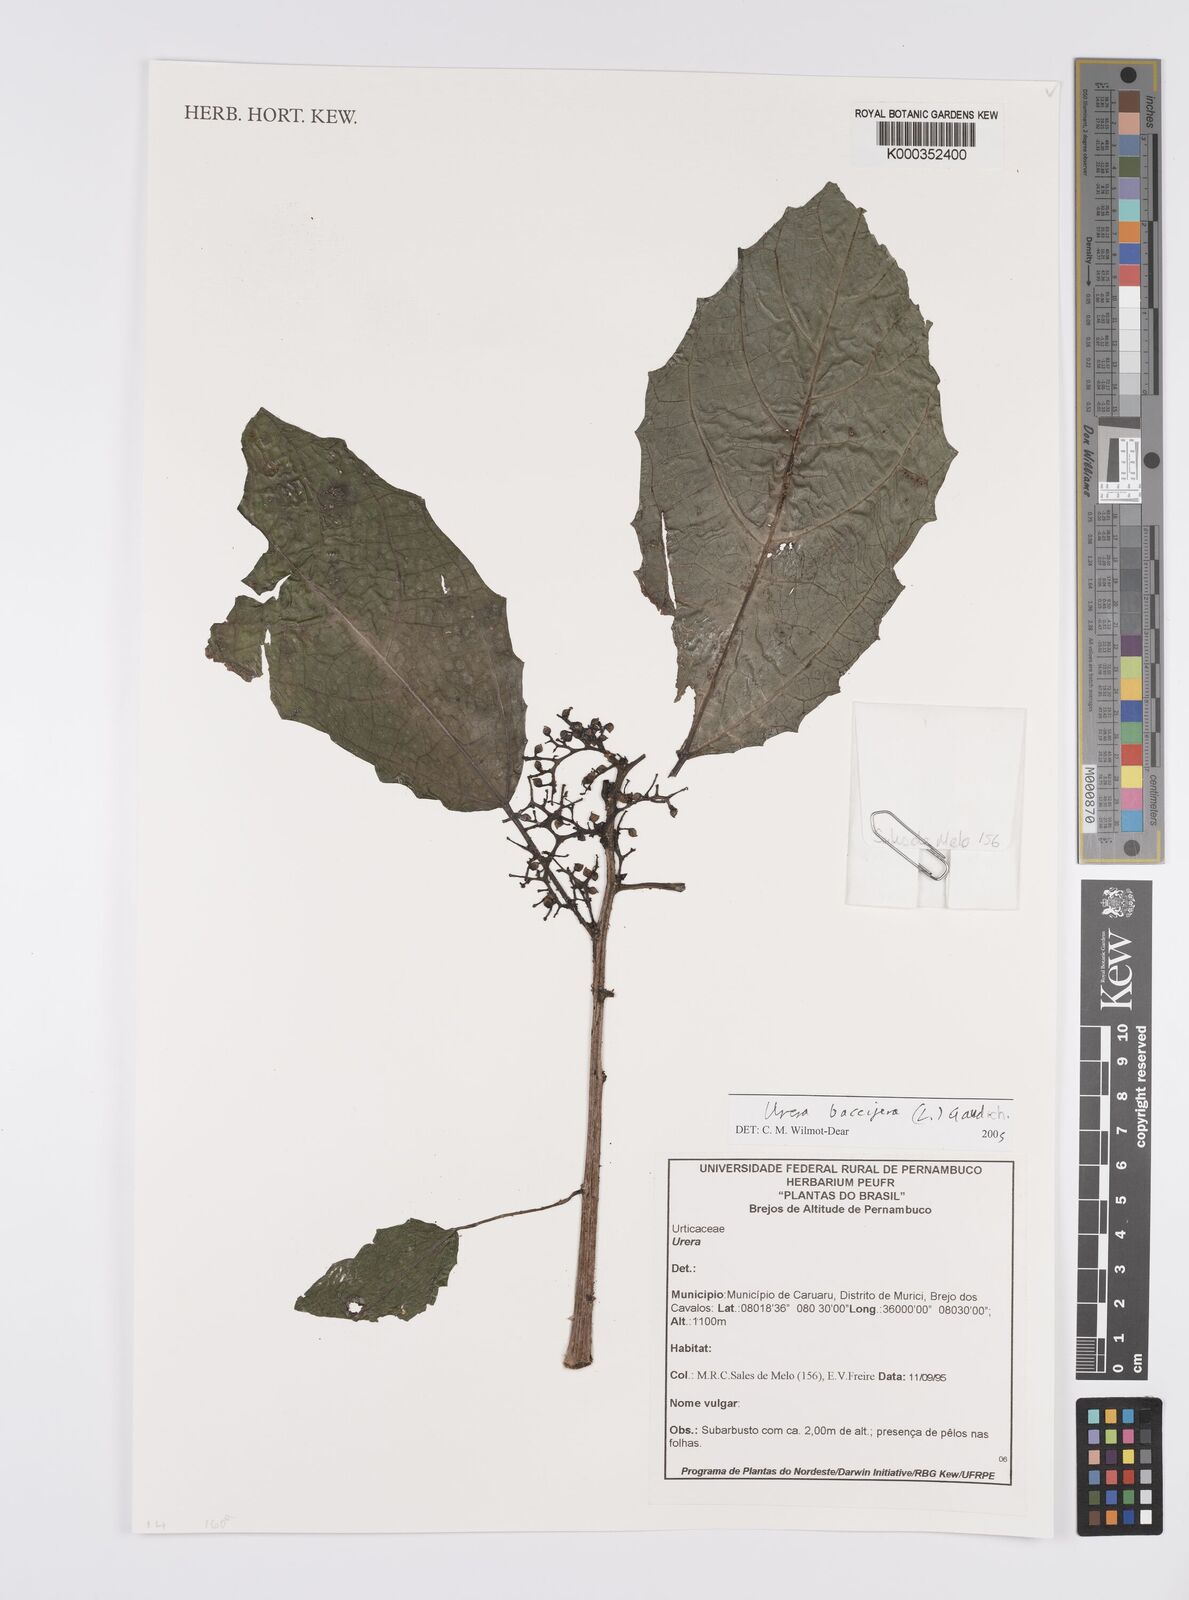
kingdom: Plantae
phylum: Tracheophyta
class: Magnoliopsida
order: Rosales
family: Urticaceae
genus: Urera
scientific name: Urera
